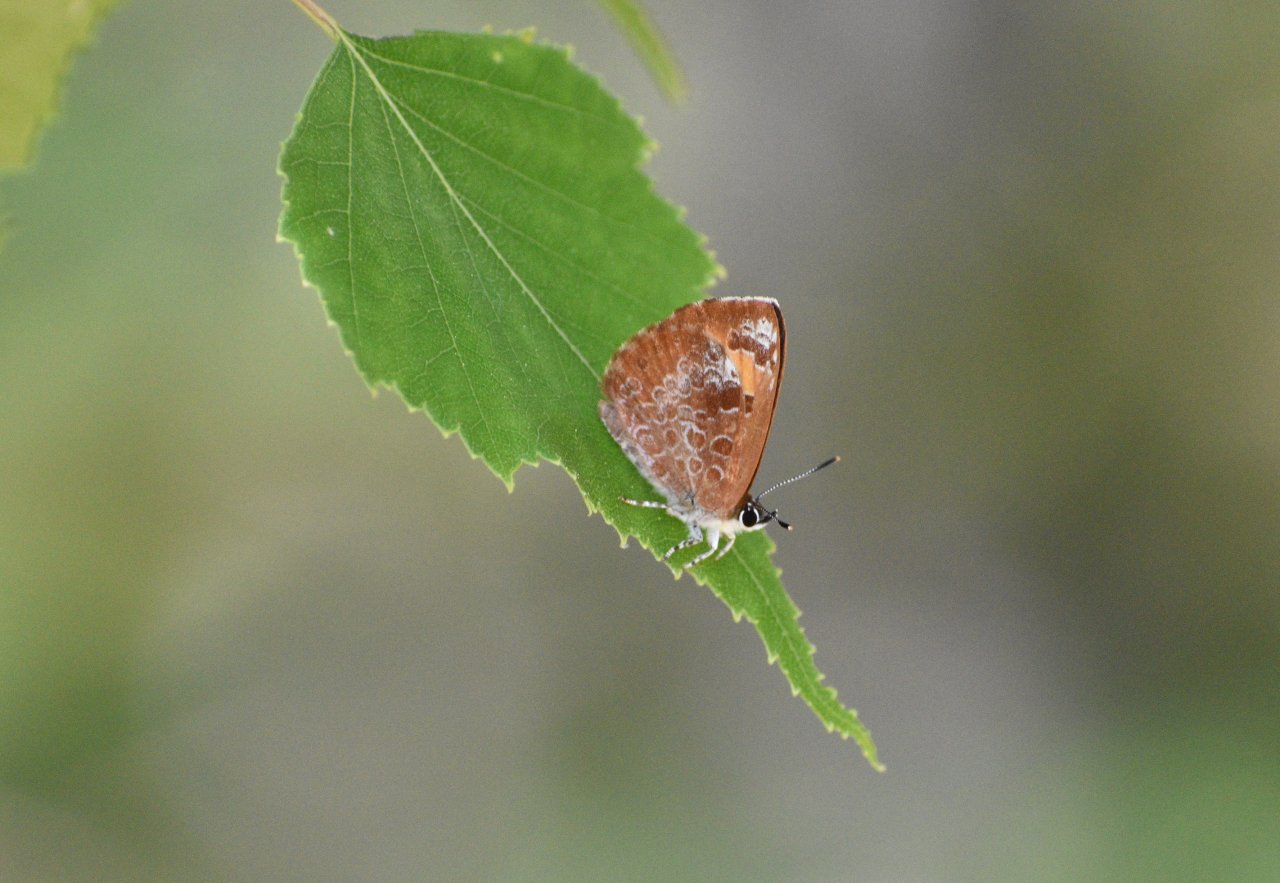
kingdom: Animalia
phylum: Arthropoda
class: Insecta
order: Lepidoptera
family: Lycaenidae
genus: Feniseca
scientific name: Feniseca tarquinius
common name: Harvester
